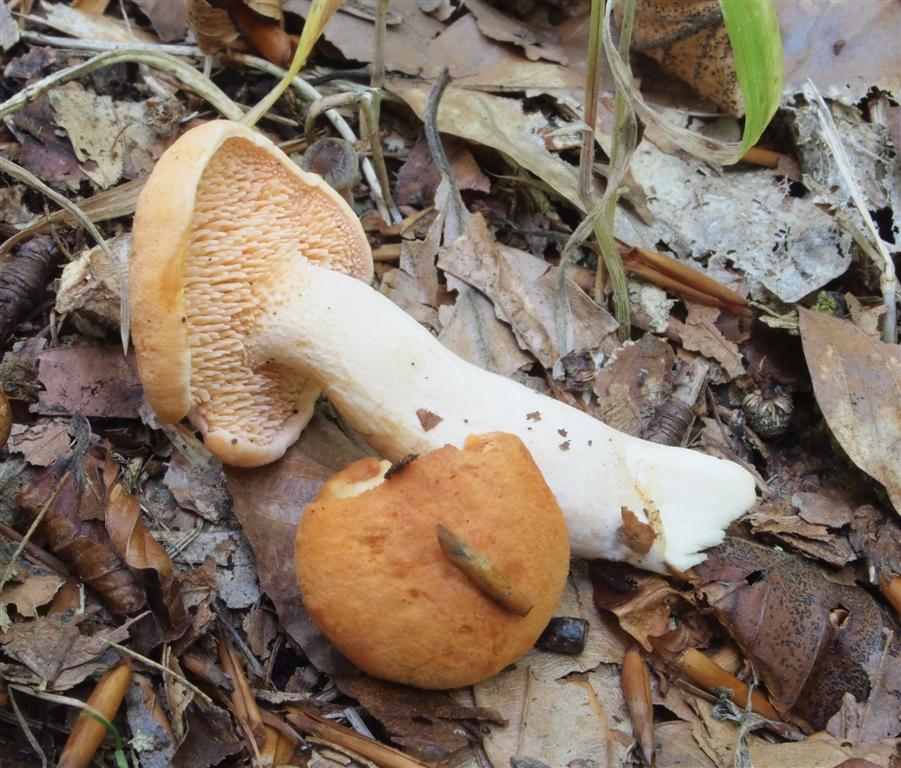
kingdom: Fungi
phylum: Basidiomycota
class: Agaricomycetes
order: Cantharellales
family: Hydnaceae
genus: Hydnum
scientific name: Hydnum ellipsosporum
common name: tandet pigsvamp
